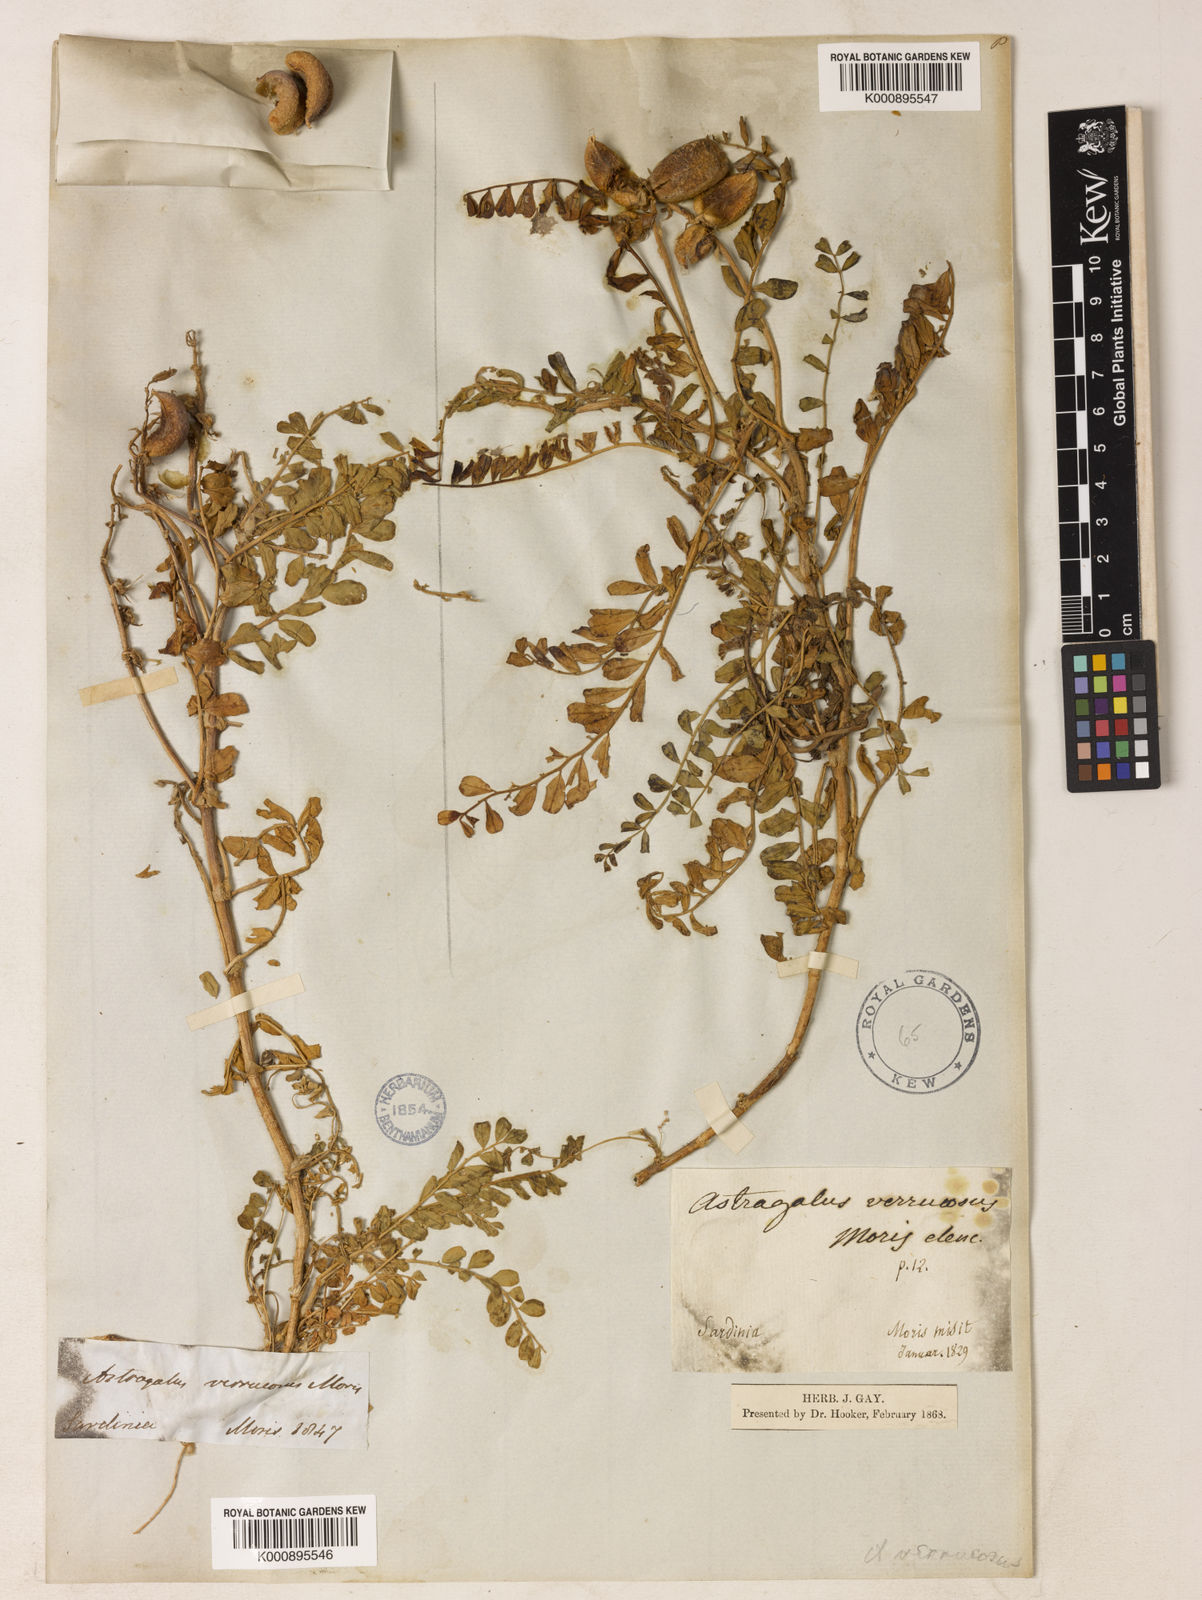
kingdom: Plantae
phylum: Tracheophyta
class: Magnoliopsida
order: Fabales
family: Fabaceae
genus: Astragalus
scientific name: Astragalus verrucosus
